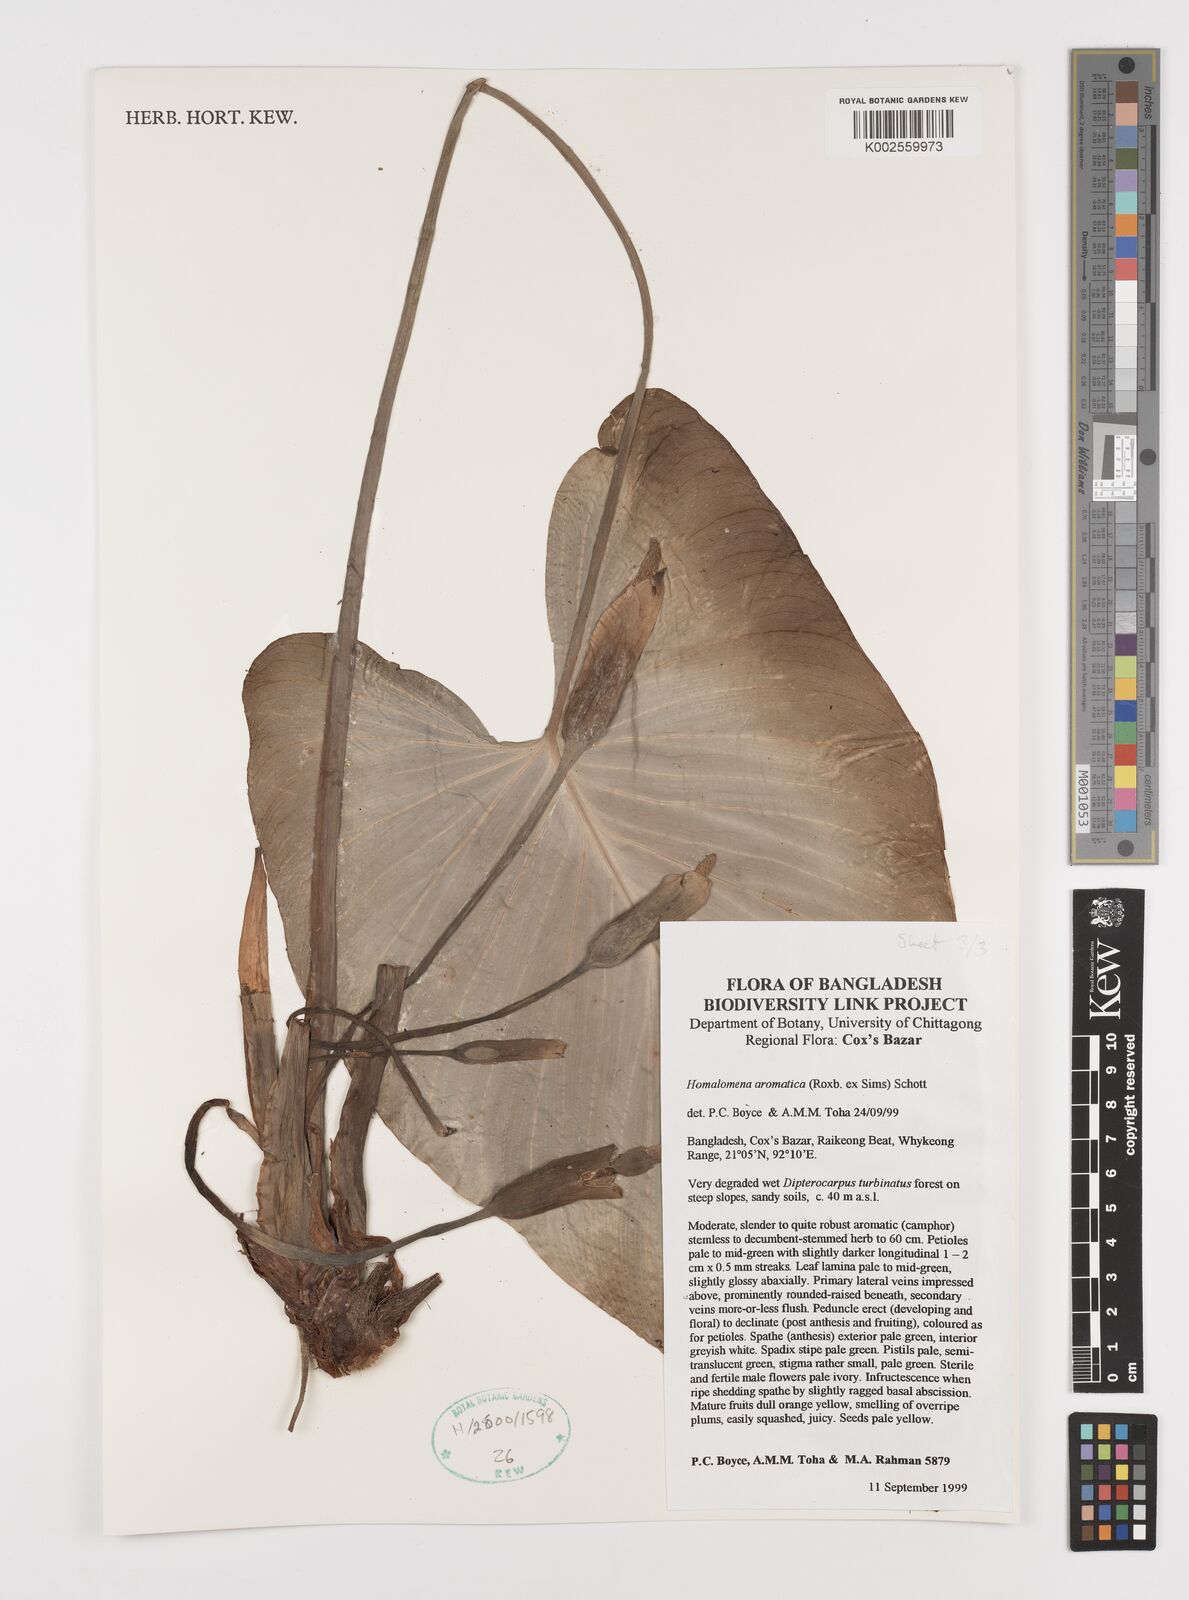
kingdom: Plantae
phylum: Tracheophyta
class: Liliopsida
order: Alismatales
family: Araceae
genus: Homalomena
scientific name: Homalomena aromatica
